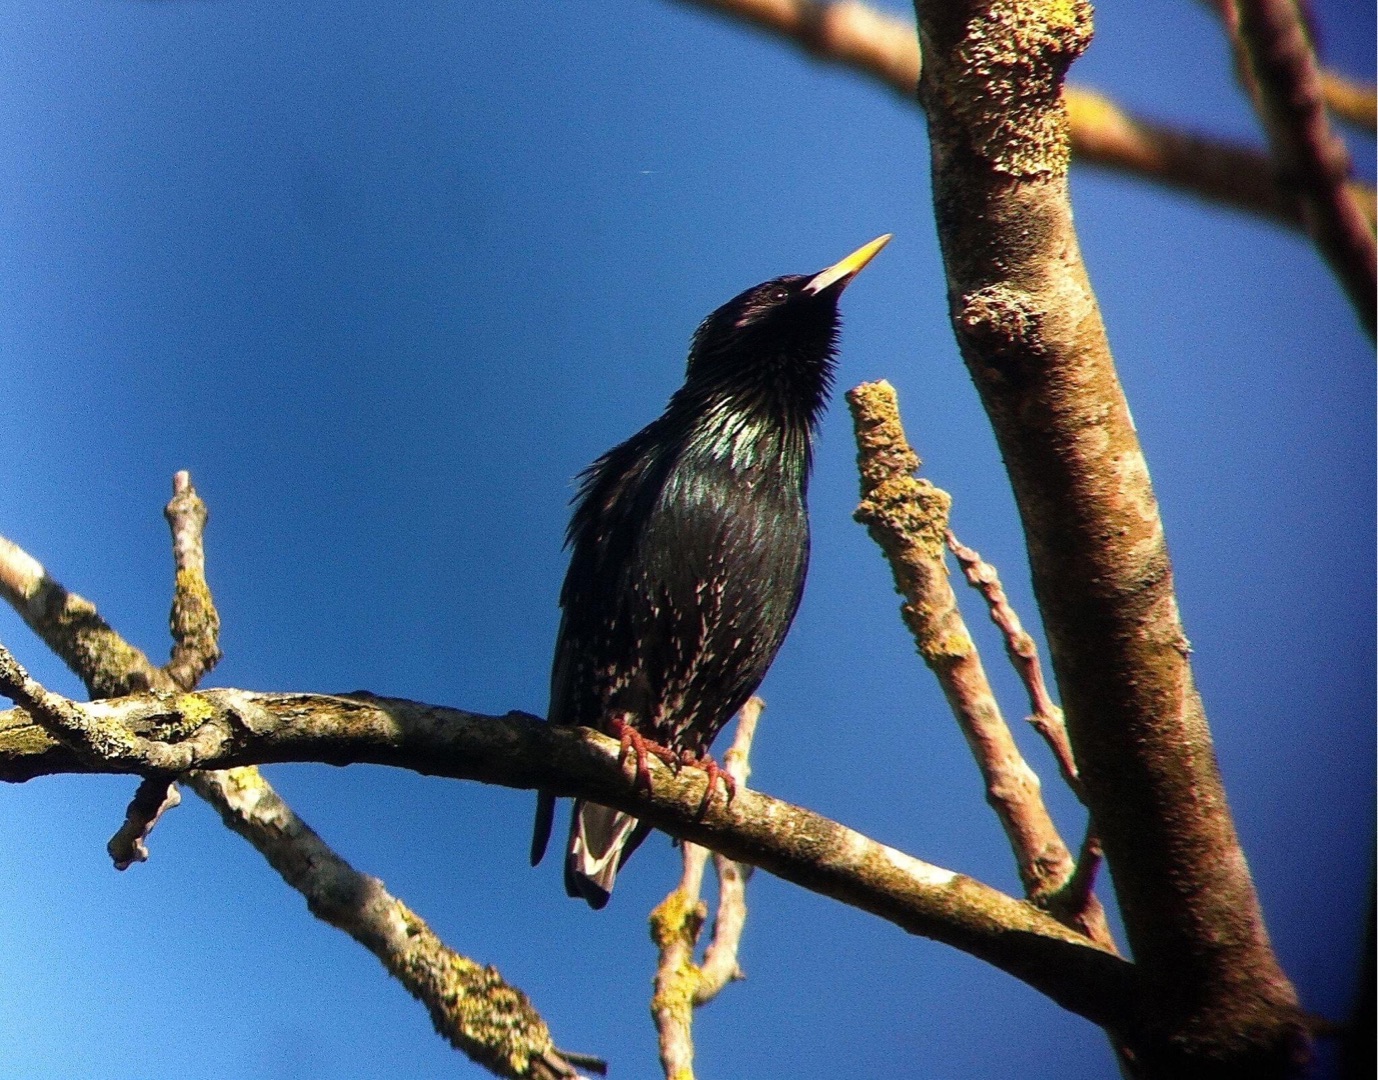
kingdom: Animalia
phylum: Chordata
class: Aves
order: Passeriformes
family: Sturnidae
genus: Sturnus
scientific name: Sturnus vulgaris
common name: Stær
